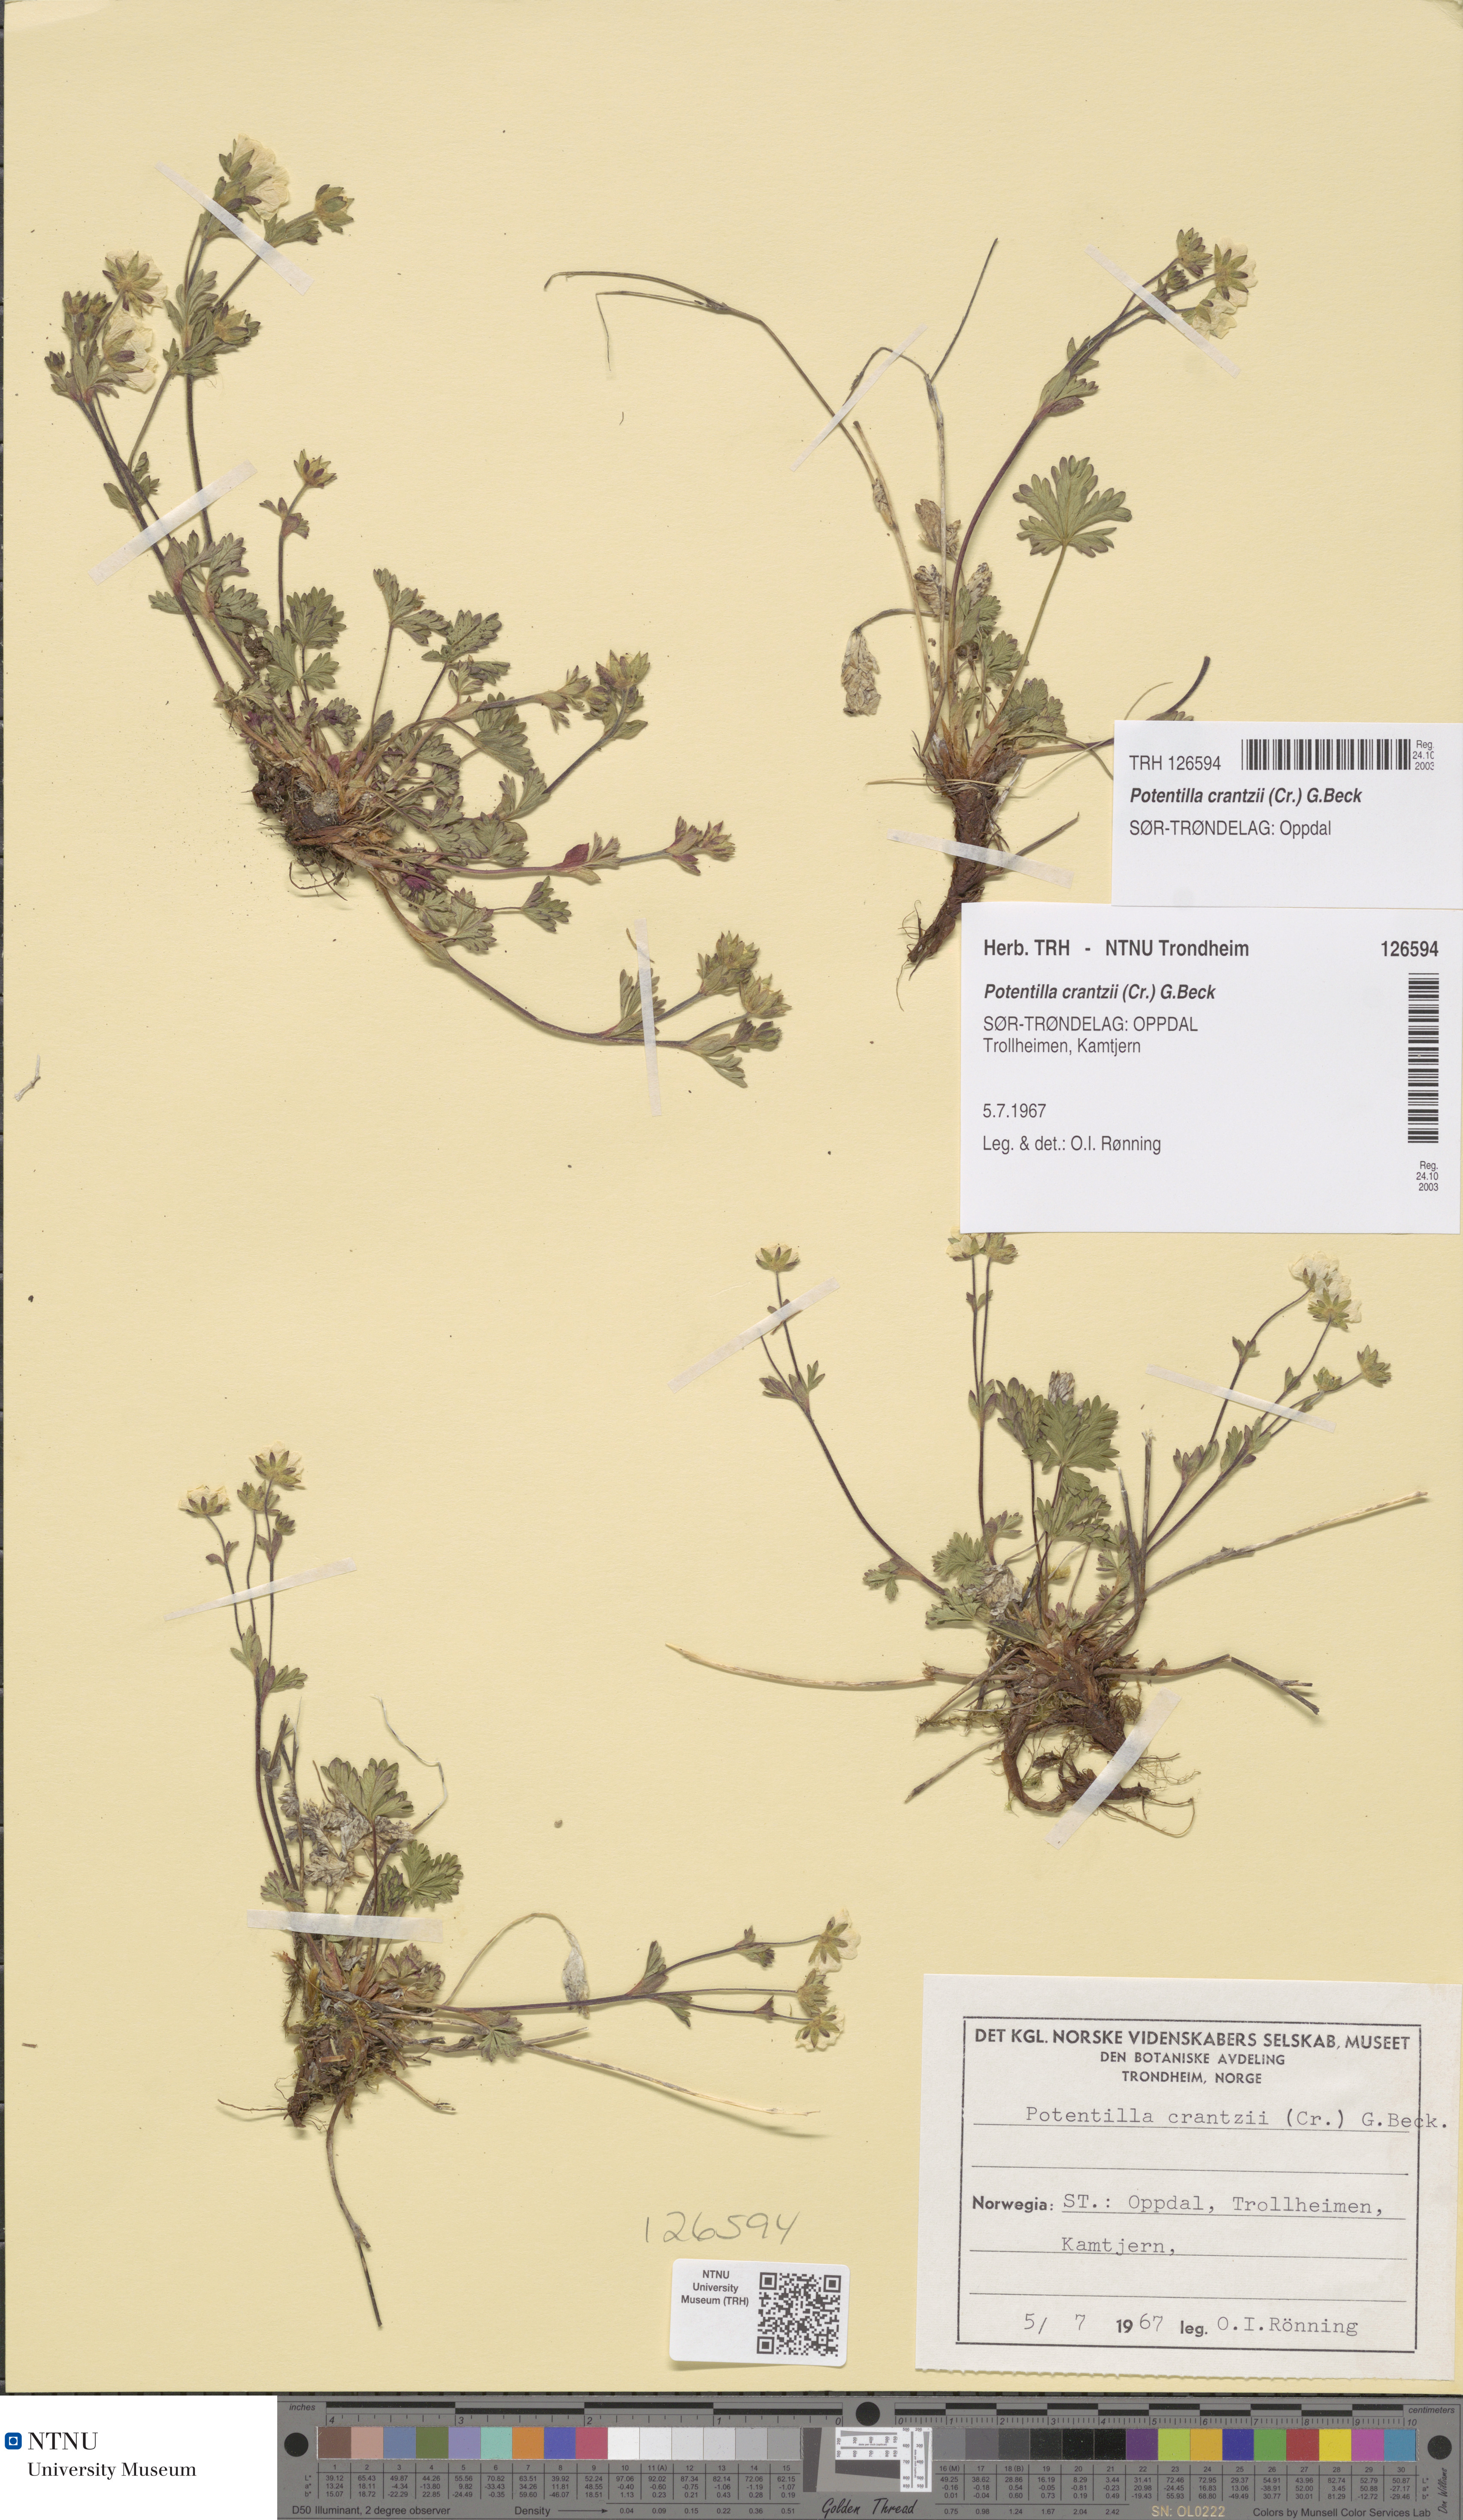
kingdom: Plantae
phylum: Tracheophyta
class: Magnoliopsida
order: Rosales
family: Rosaceae
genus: Potentilla
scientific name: Potentilla crantzii
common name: Alpine cinquefoil
